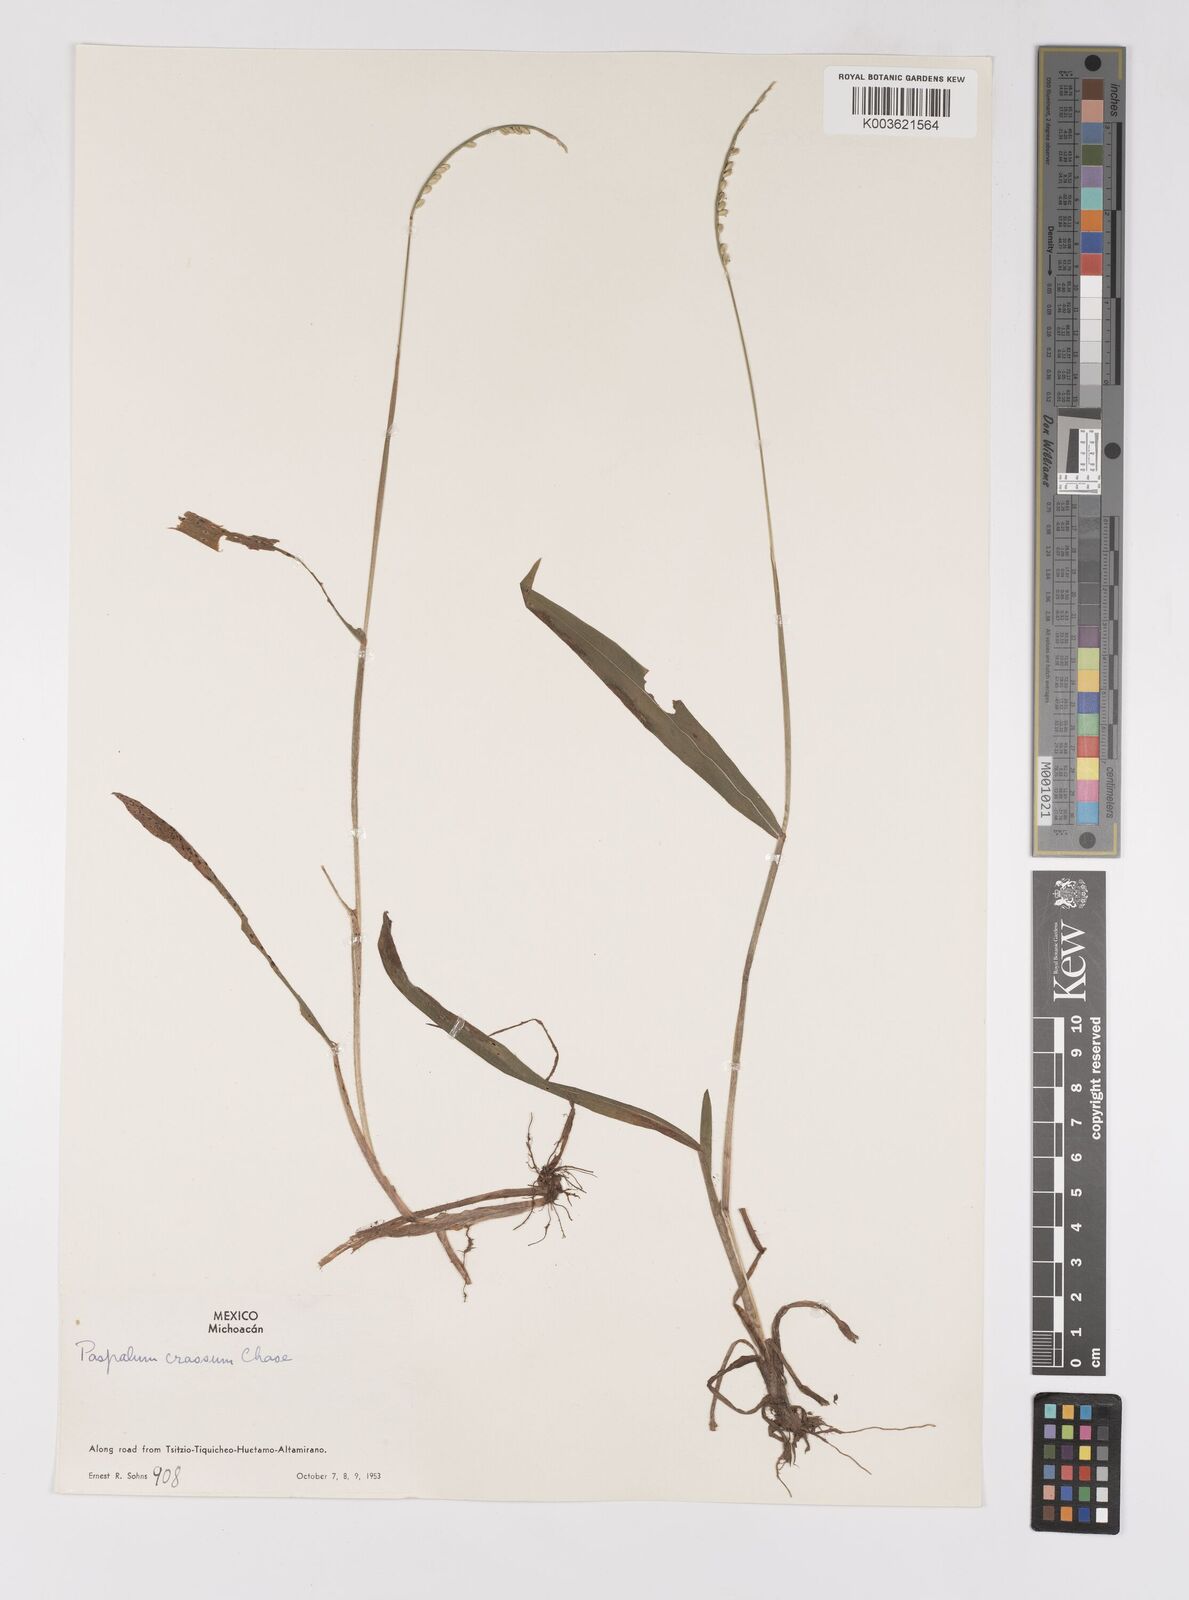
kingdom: Plantae
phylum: Tracheophyta
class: Liliopsida
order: Poales
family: Poaceae
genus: Paspalum
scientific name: Paspalum crassum
